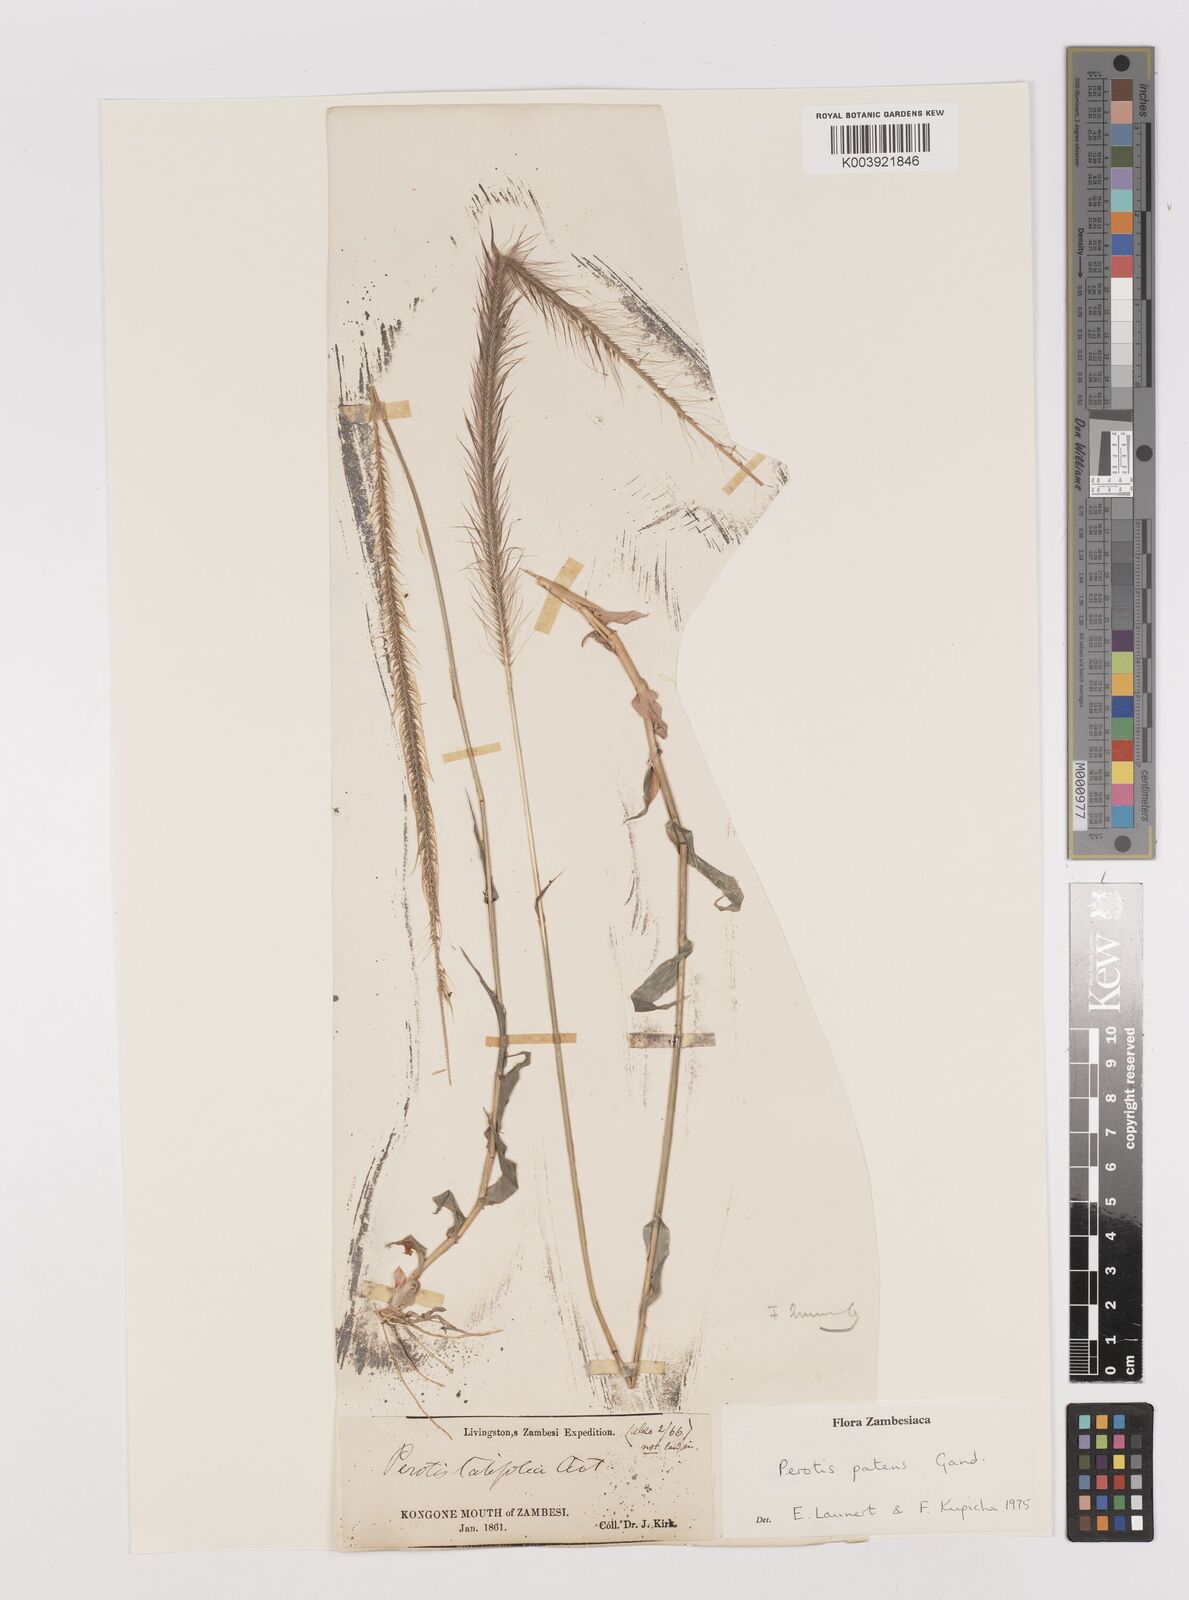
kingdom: Plantae
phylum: Tracheophyta
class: Liliopsida
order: Poales
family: Poaceae
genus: Perotis
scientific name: Perotis patens
